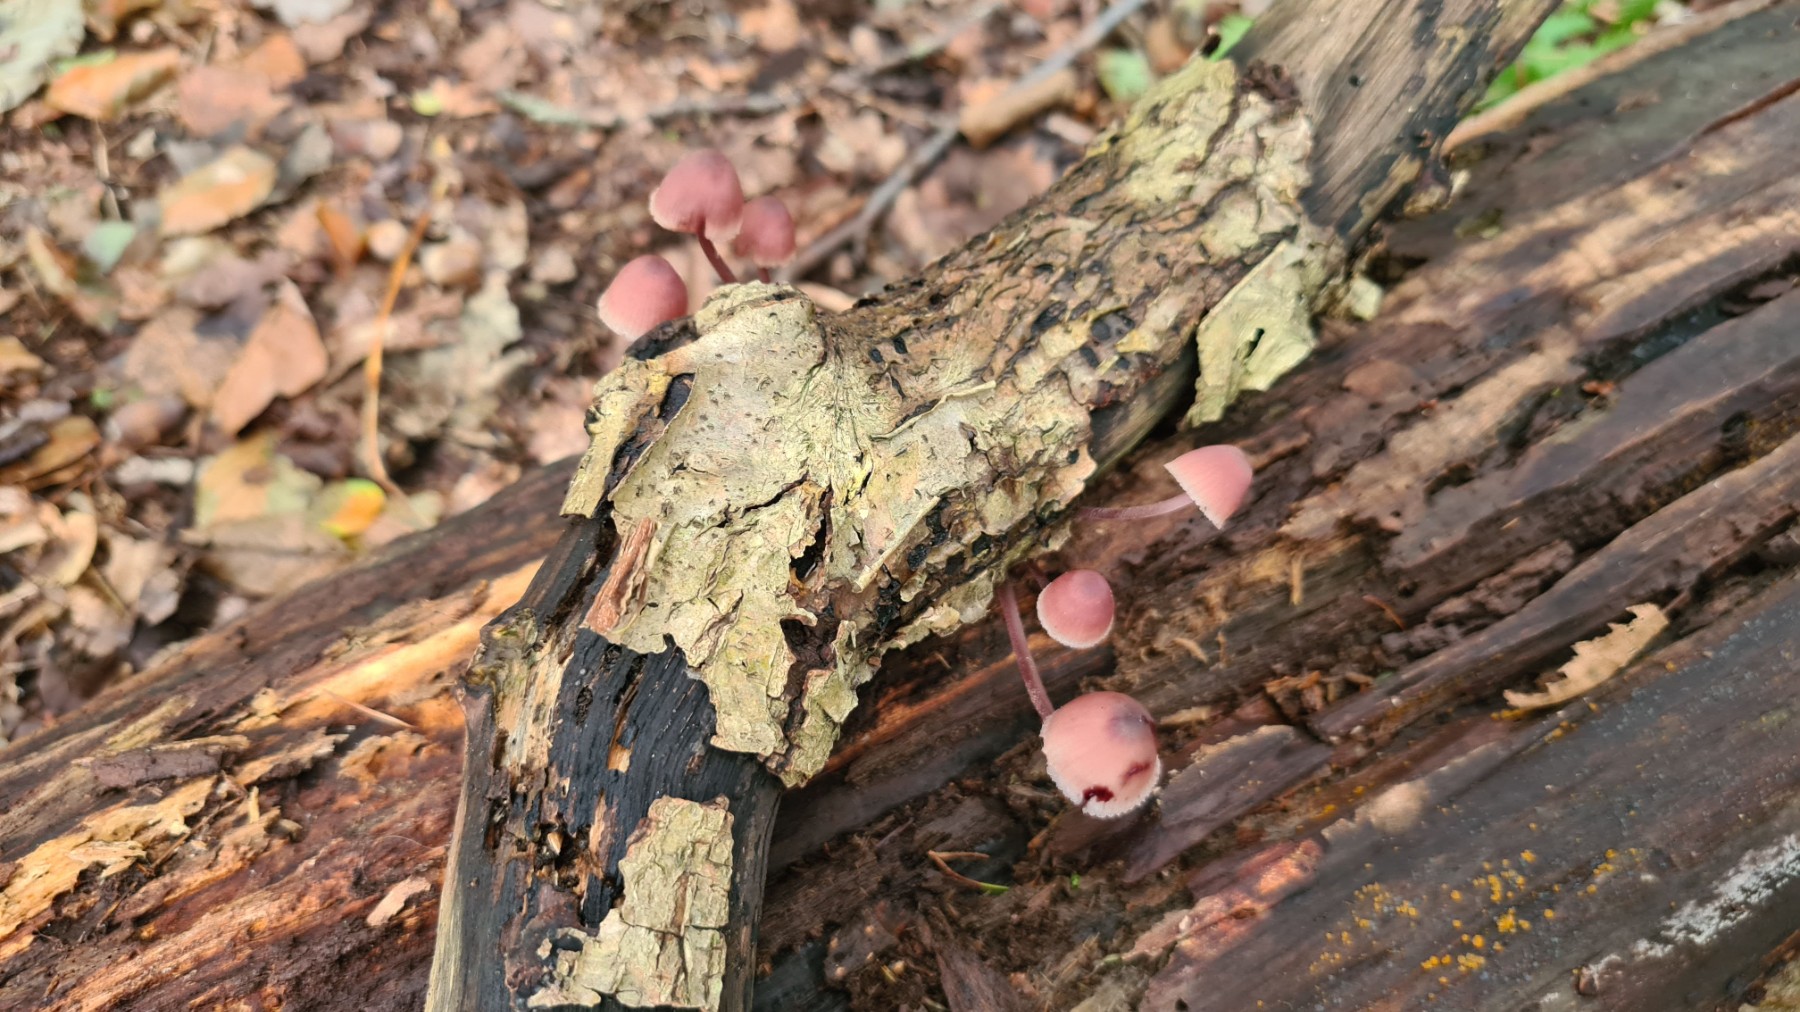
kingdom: Fungi
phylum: Basidiomycota
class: Agaricomycetes
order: Agaricales
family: Mycenaceae
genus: Mycena
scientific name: Mycena haematopus
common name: blødende huesvamp
